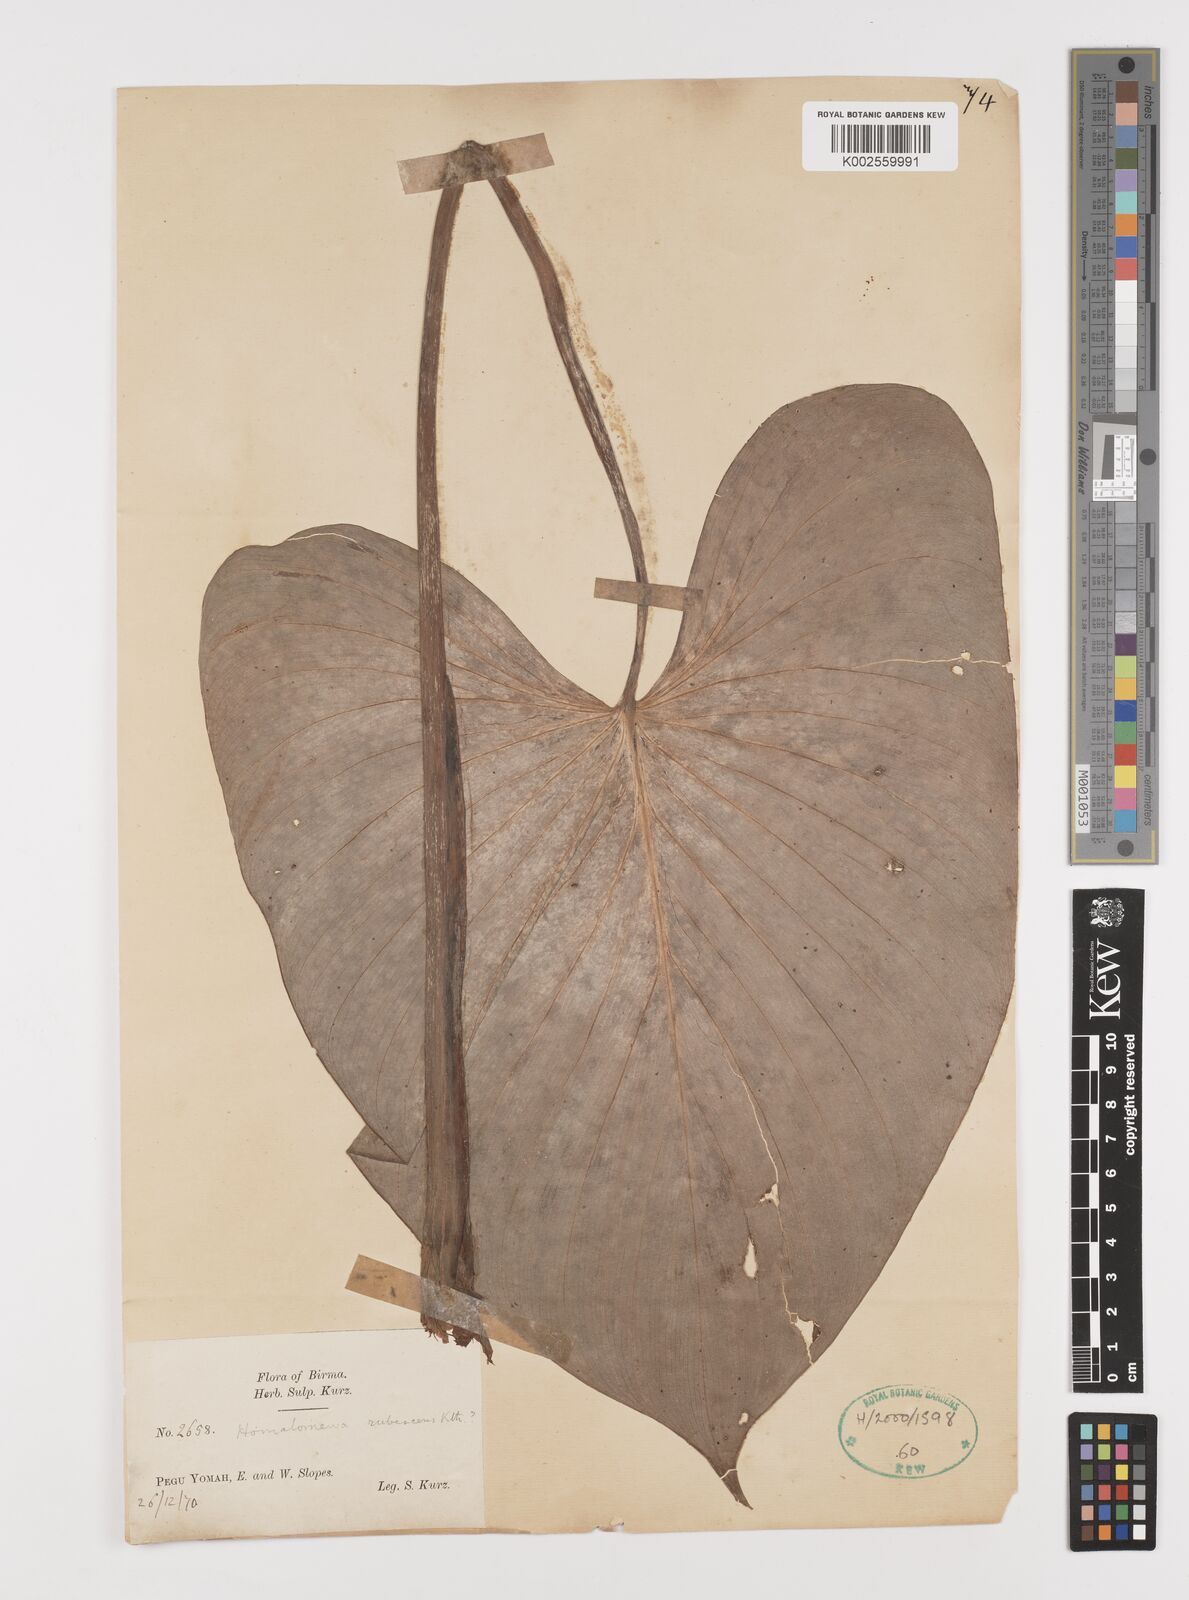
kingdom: Plantae
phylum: Tracheophyta
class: Liliopsida
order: Alismatales
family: Araceae
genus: Homalomena
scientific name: Homalomena rubescens
